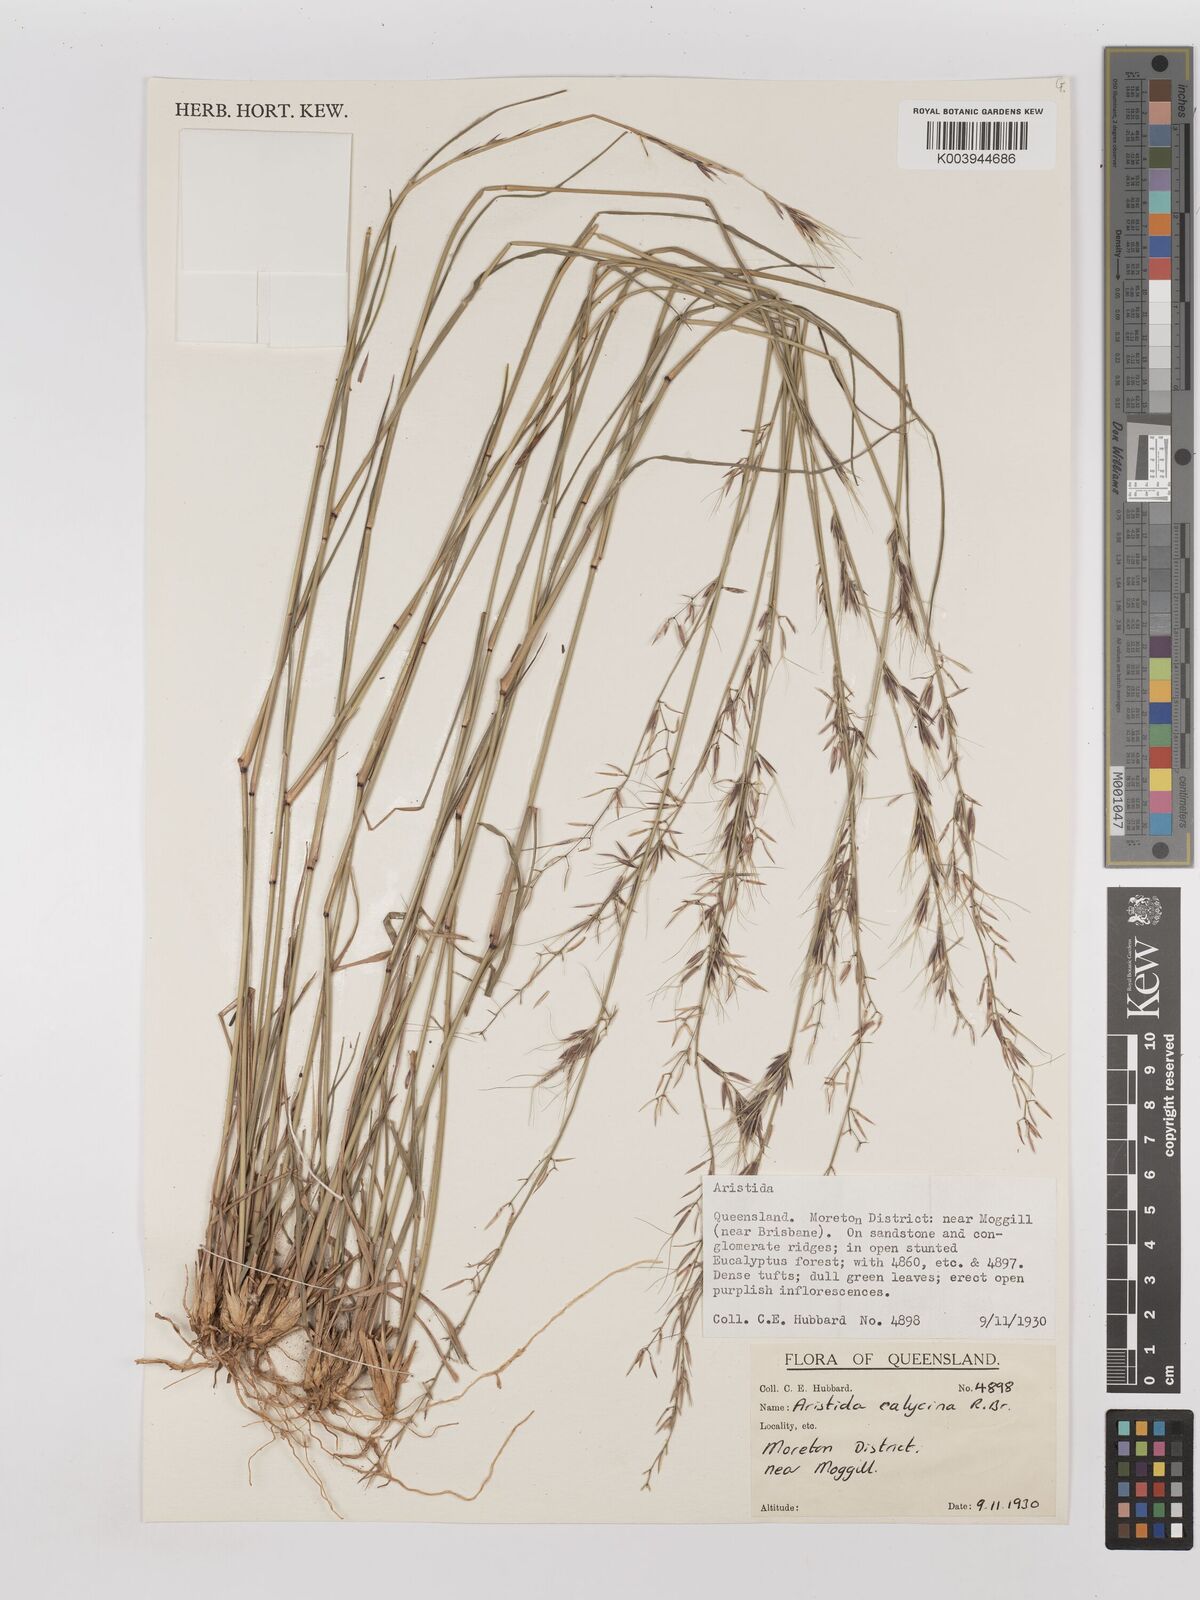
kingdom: Plantae
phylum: Tracheophyta
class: Liliopsida
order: Poales
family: Poaceae
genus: Aristida
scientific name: Aristida calycina
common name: Dark wire grass
